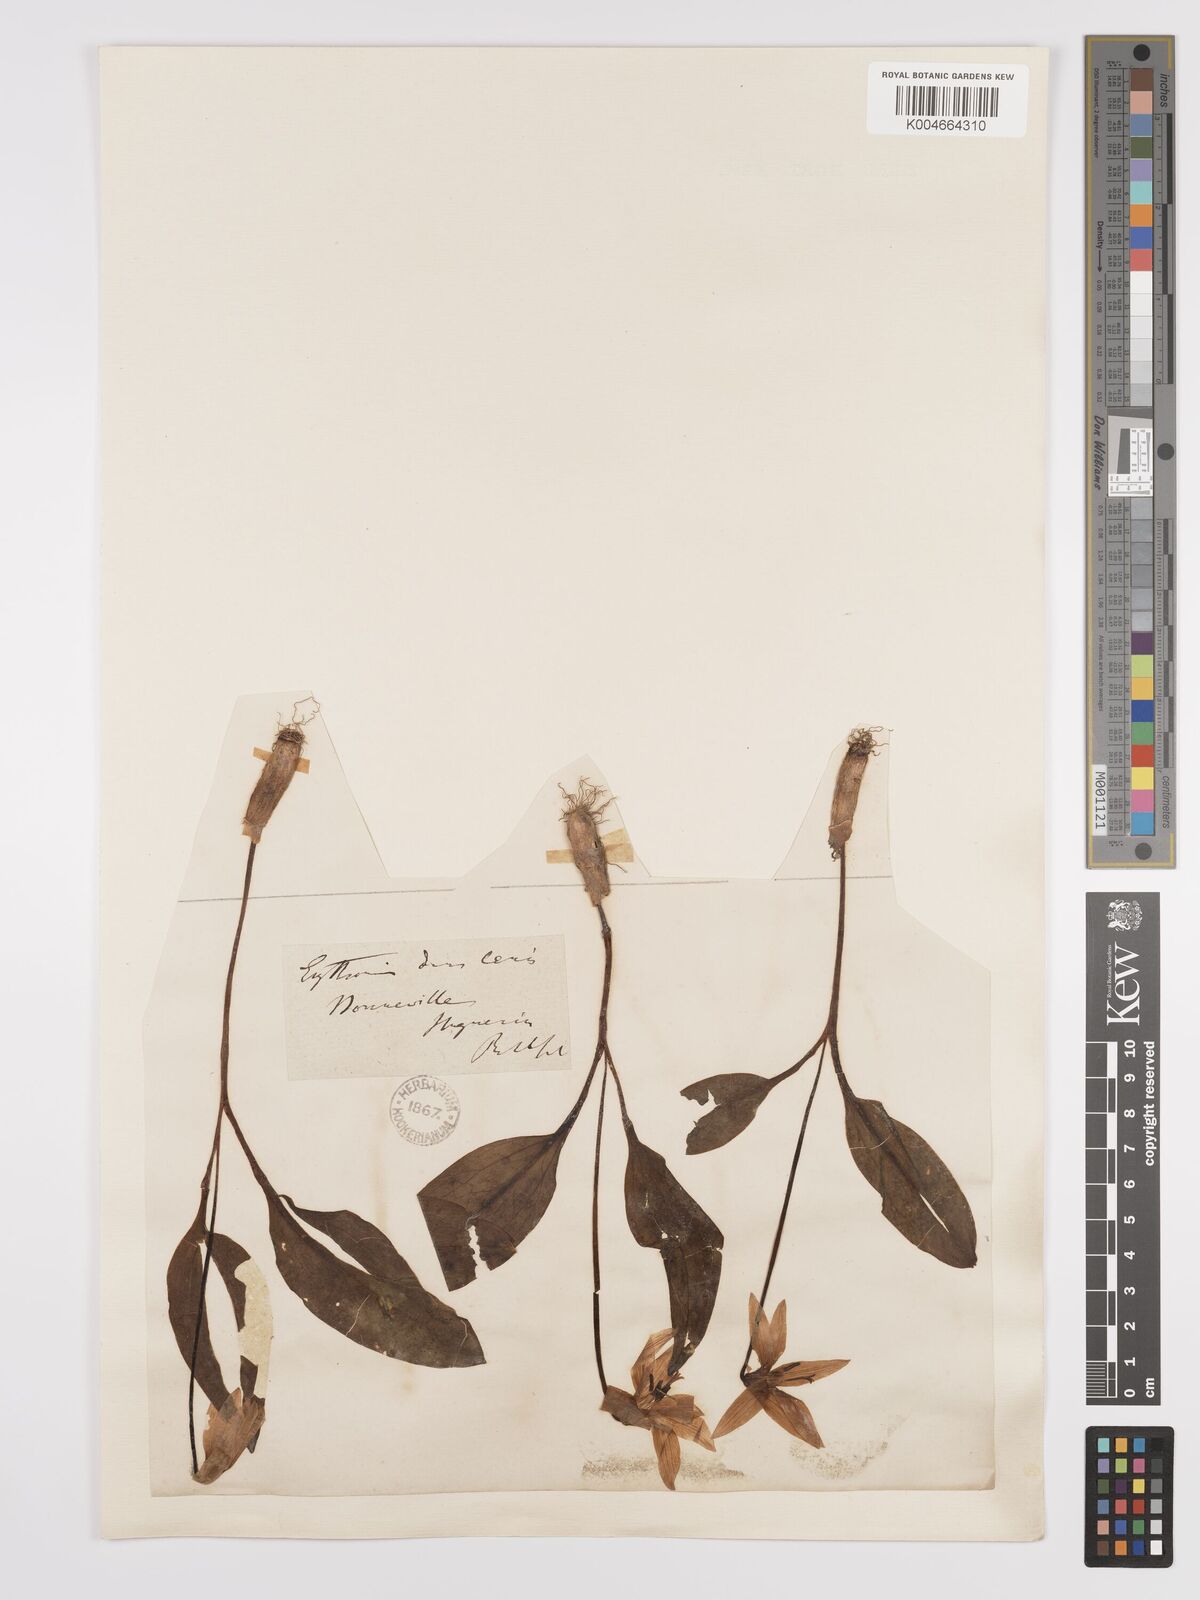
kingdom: Plantae
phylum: Tracheophyta
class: Liliopsida
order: Liliales
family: Liliaceae
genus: Erythronium
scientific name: Erythronium dens-canis
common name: Dog's-tooth-violet
